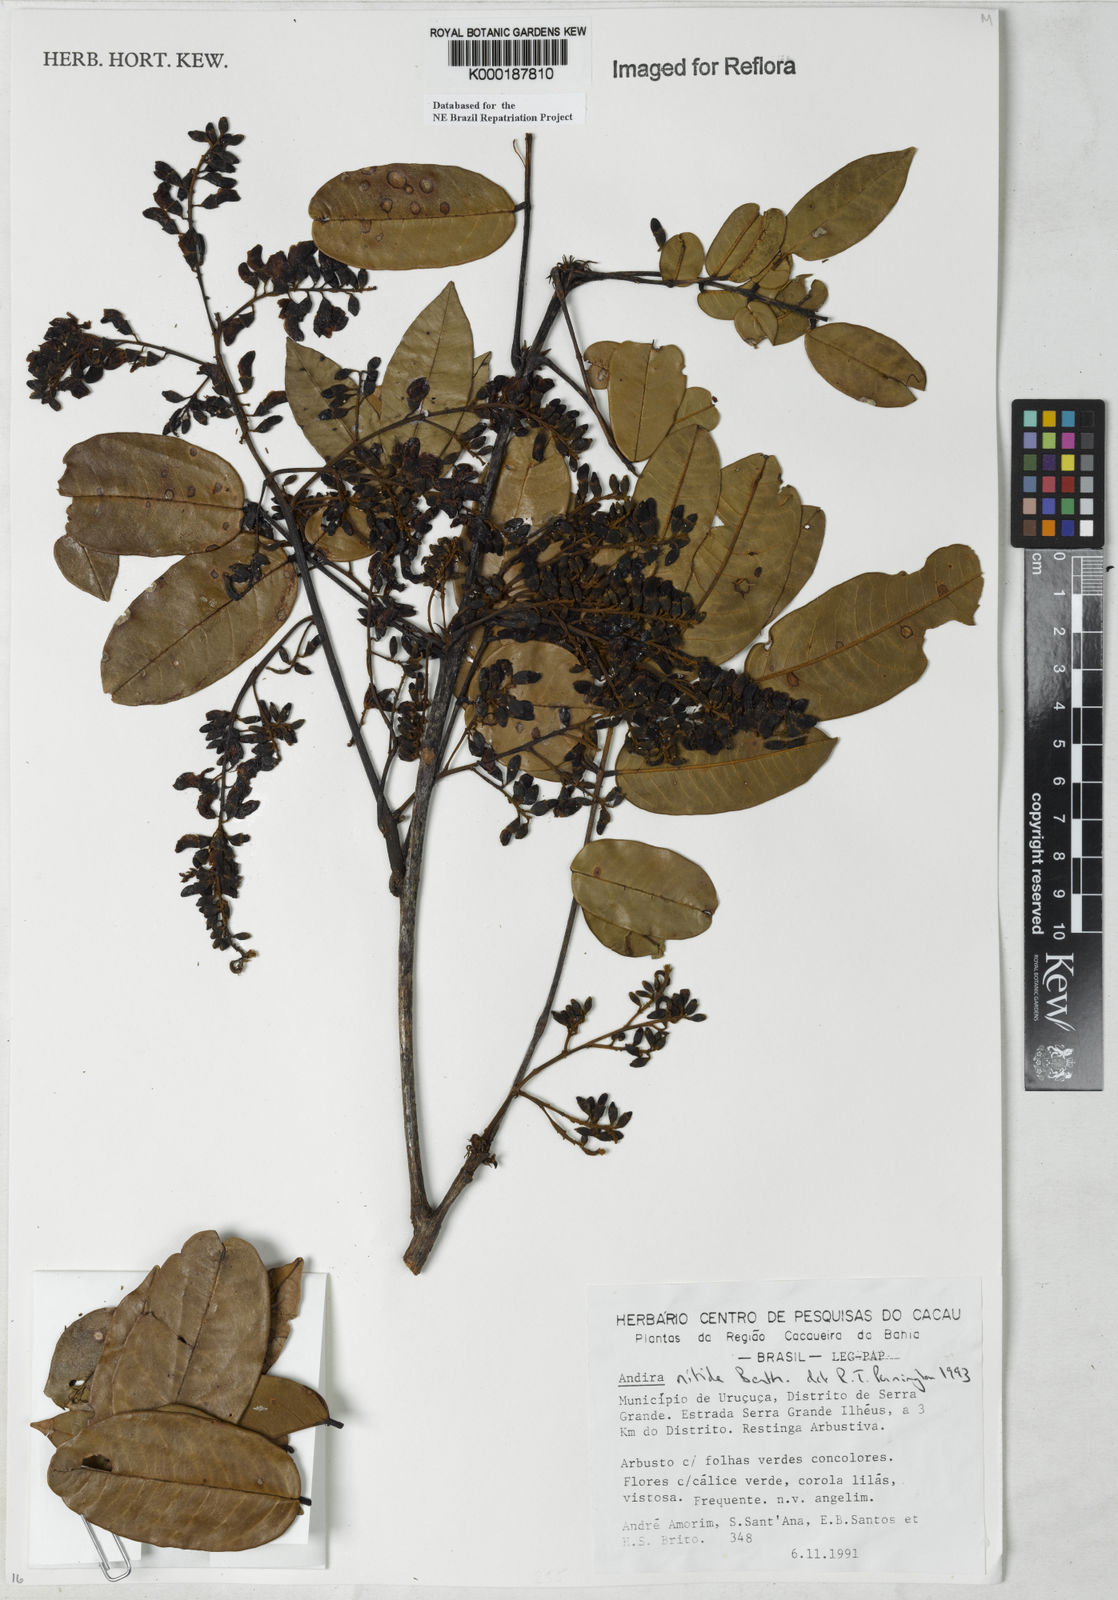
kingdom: Plantae
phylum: Tracheophyta
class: Magnoliopsida
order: Fabales
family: Fabaceae
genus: Andira
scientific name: Andira nitida
